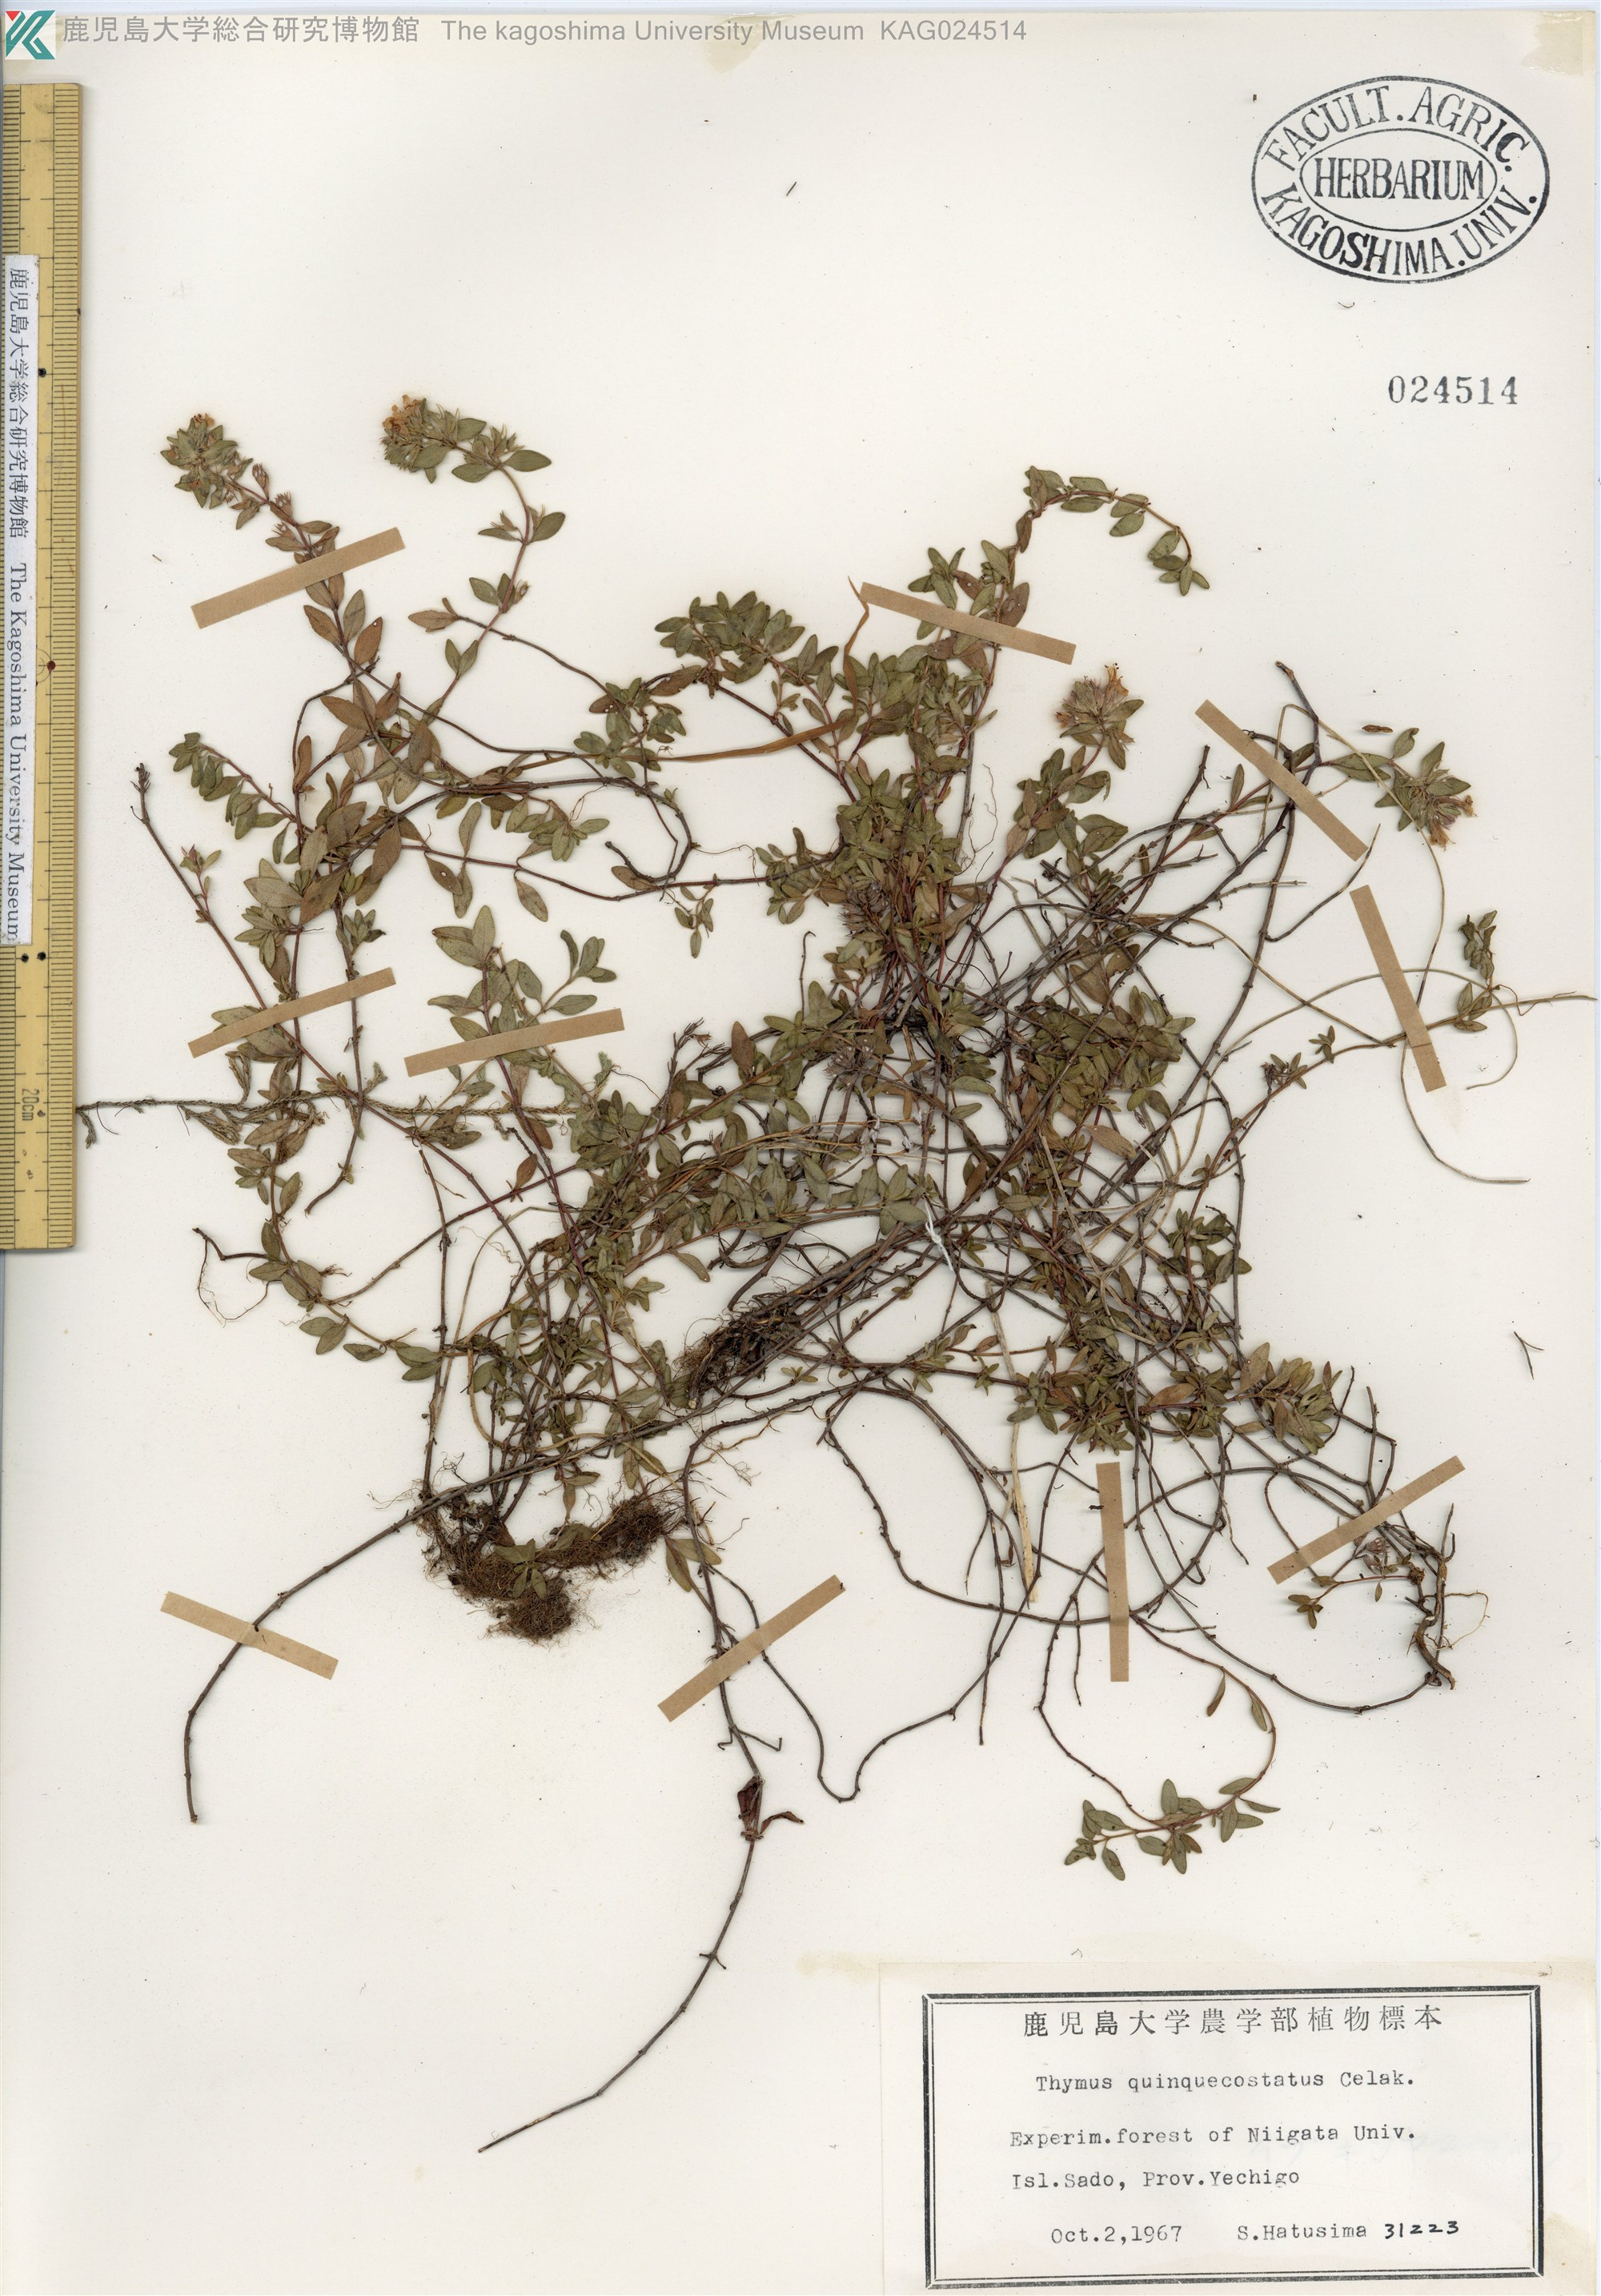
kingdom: Plantae
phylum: Tracheophyta
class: Magnoliopsida
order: Lamiales
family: Lamiaceae
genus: Thymus
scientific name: Thymus quinquecostatus
